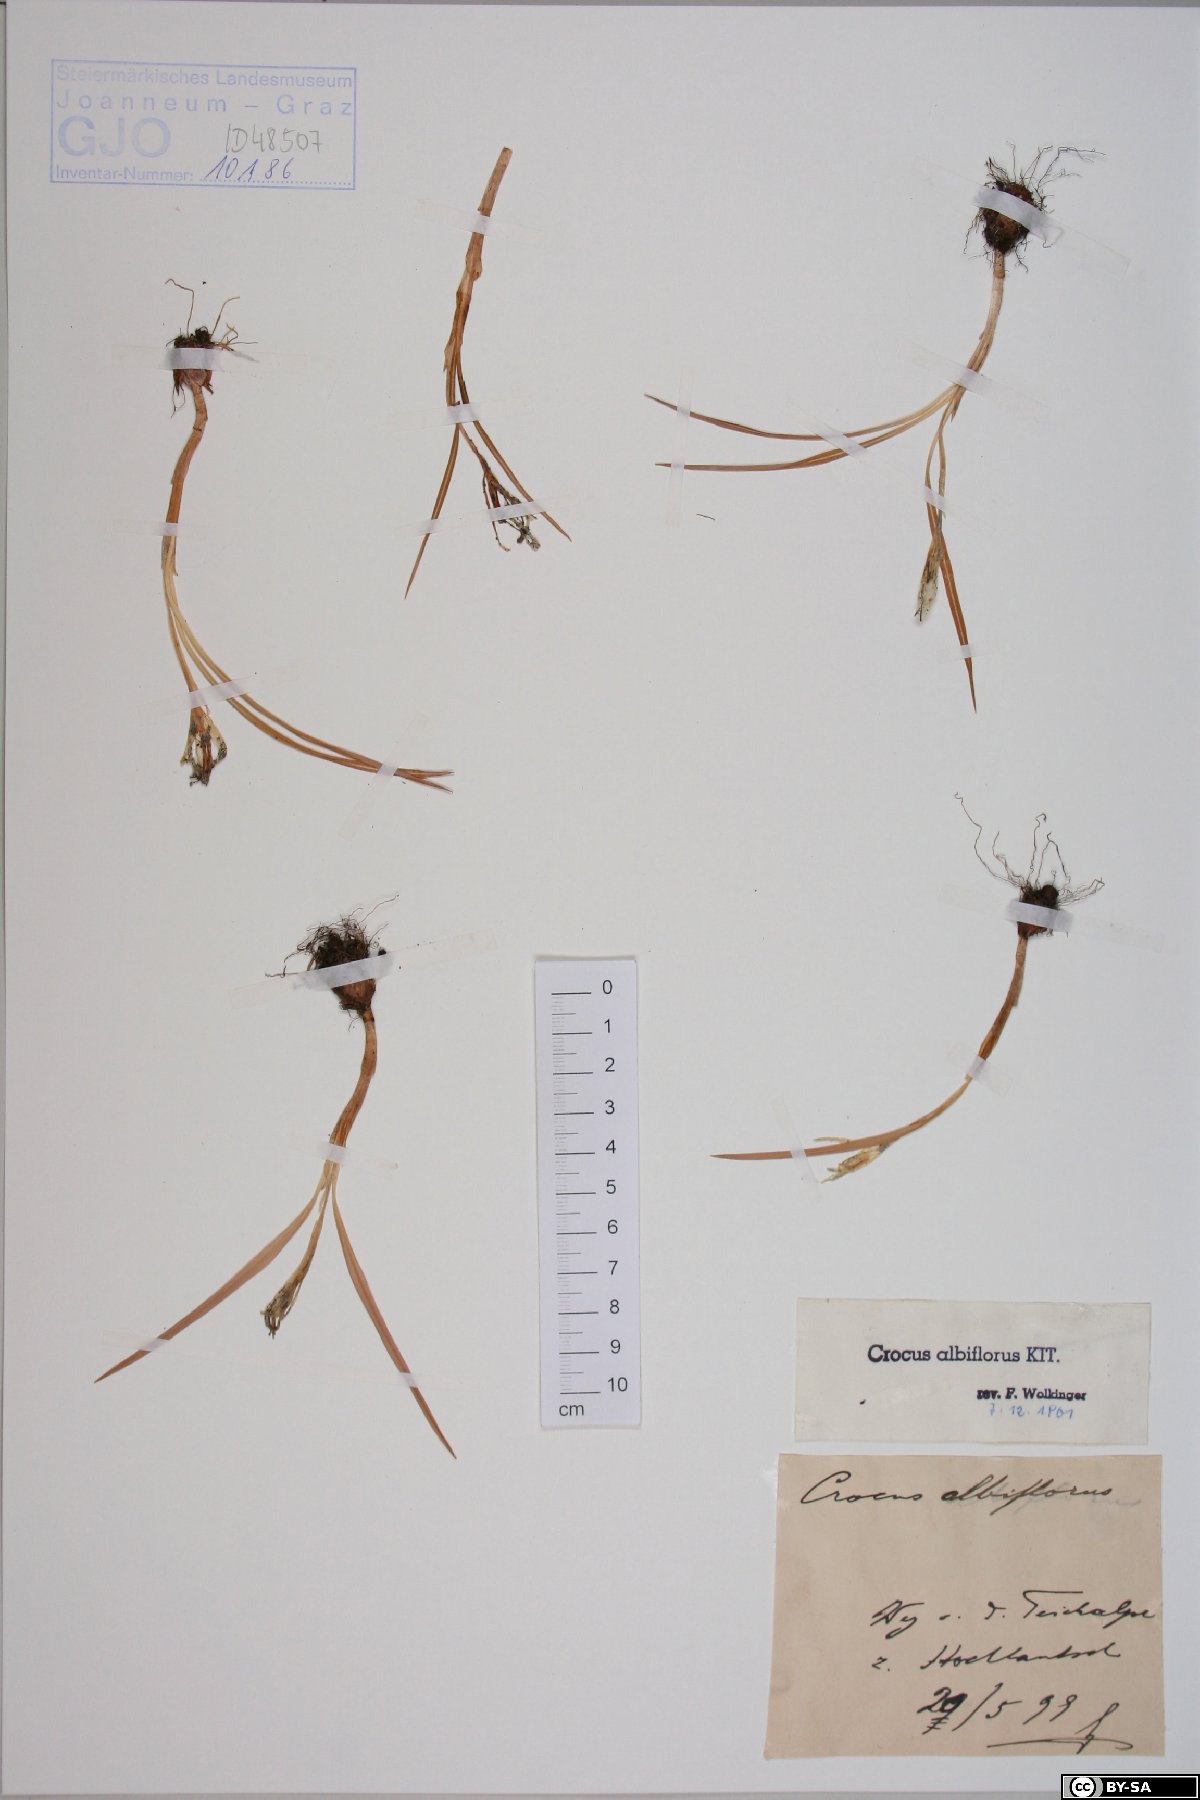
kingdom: Plantae
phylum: Tracheophyta
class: Liliopsida
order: Asparagales
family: Iridaceae
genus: Crocus
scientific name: Crocus vernus
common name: Spring crocus
